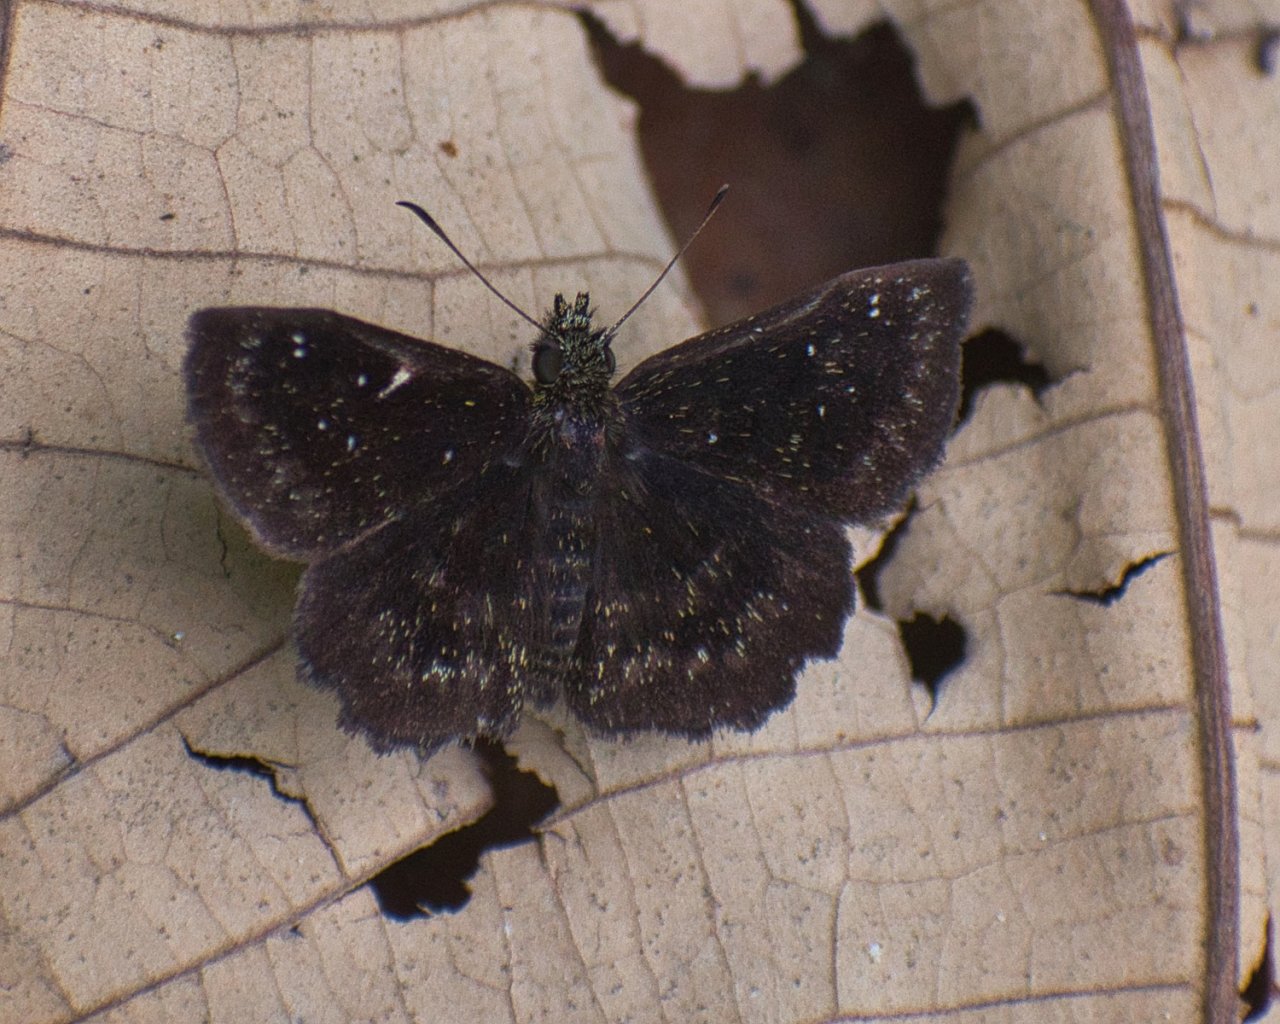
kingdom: Animalia
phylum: Arthropoda
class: Insecta
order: Lepidoptera
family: Hesperiidae
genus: Staphylus
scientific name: Staphylus
